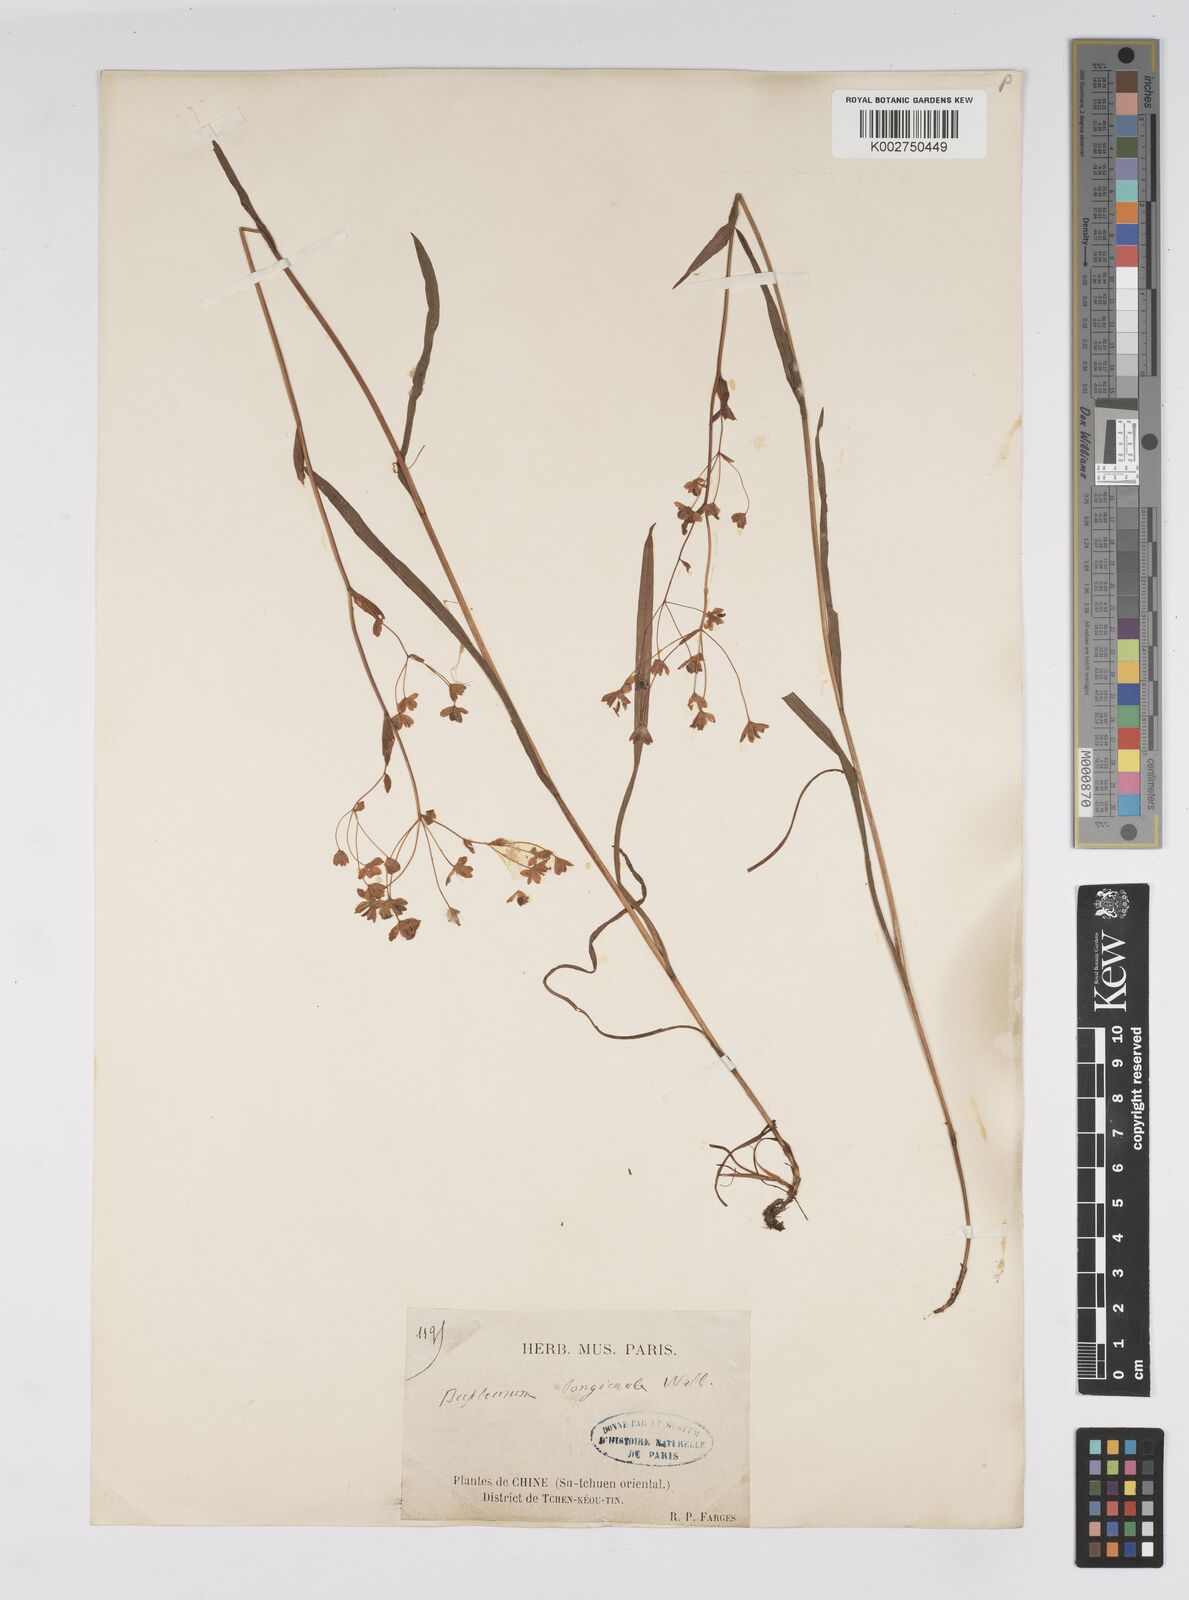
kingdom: Plantae
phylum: Tracheophyta
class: Magnoliopsida
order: Apiales
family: Apiaceae
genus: Bupleurum
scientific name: Bupleurum longicaule
